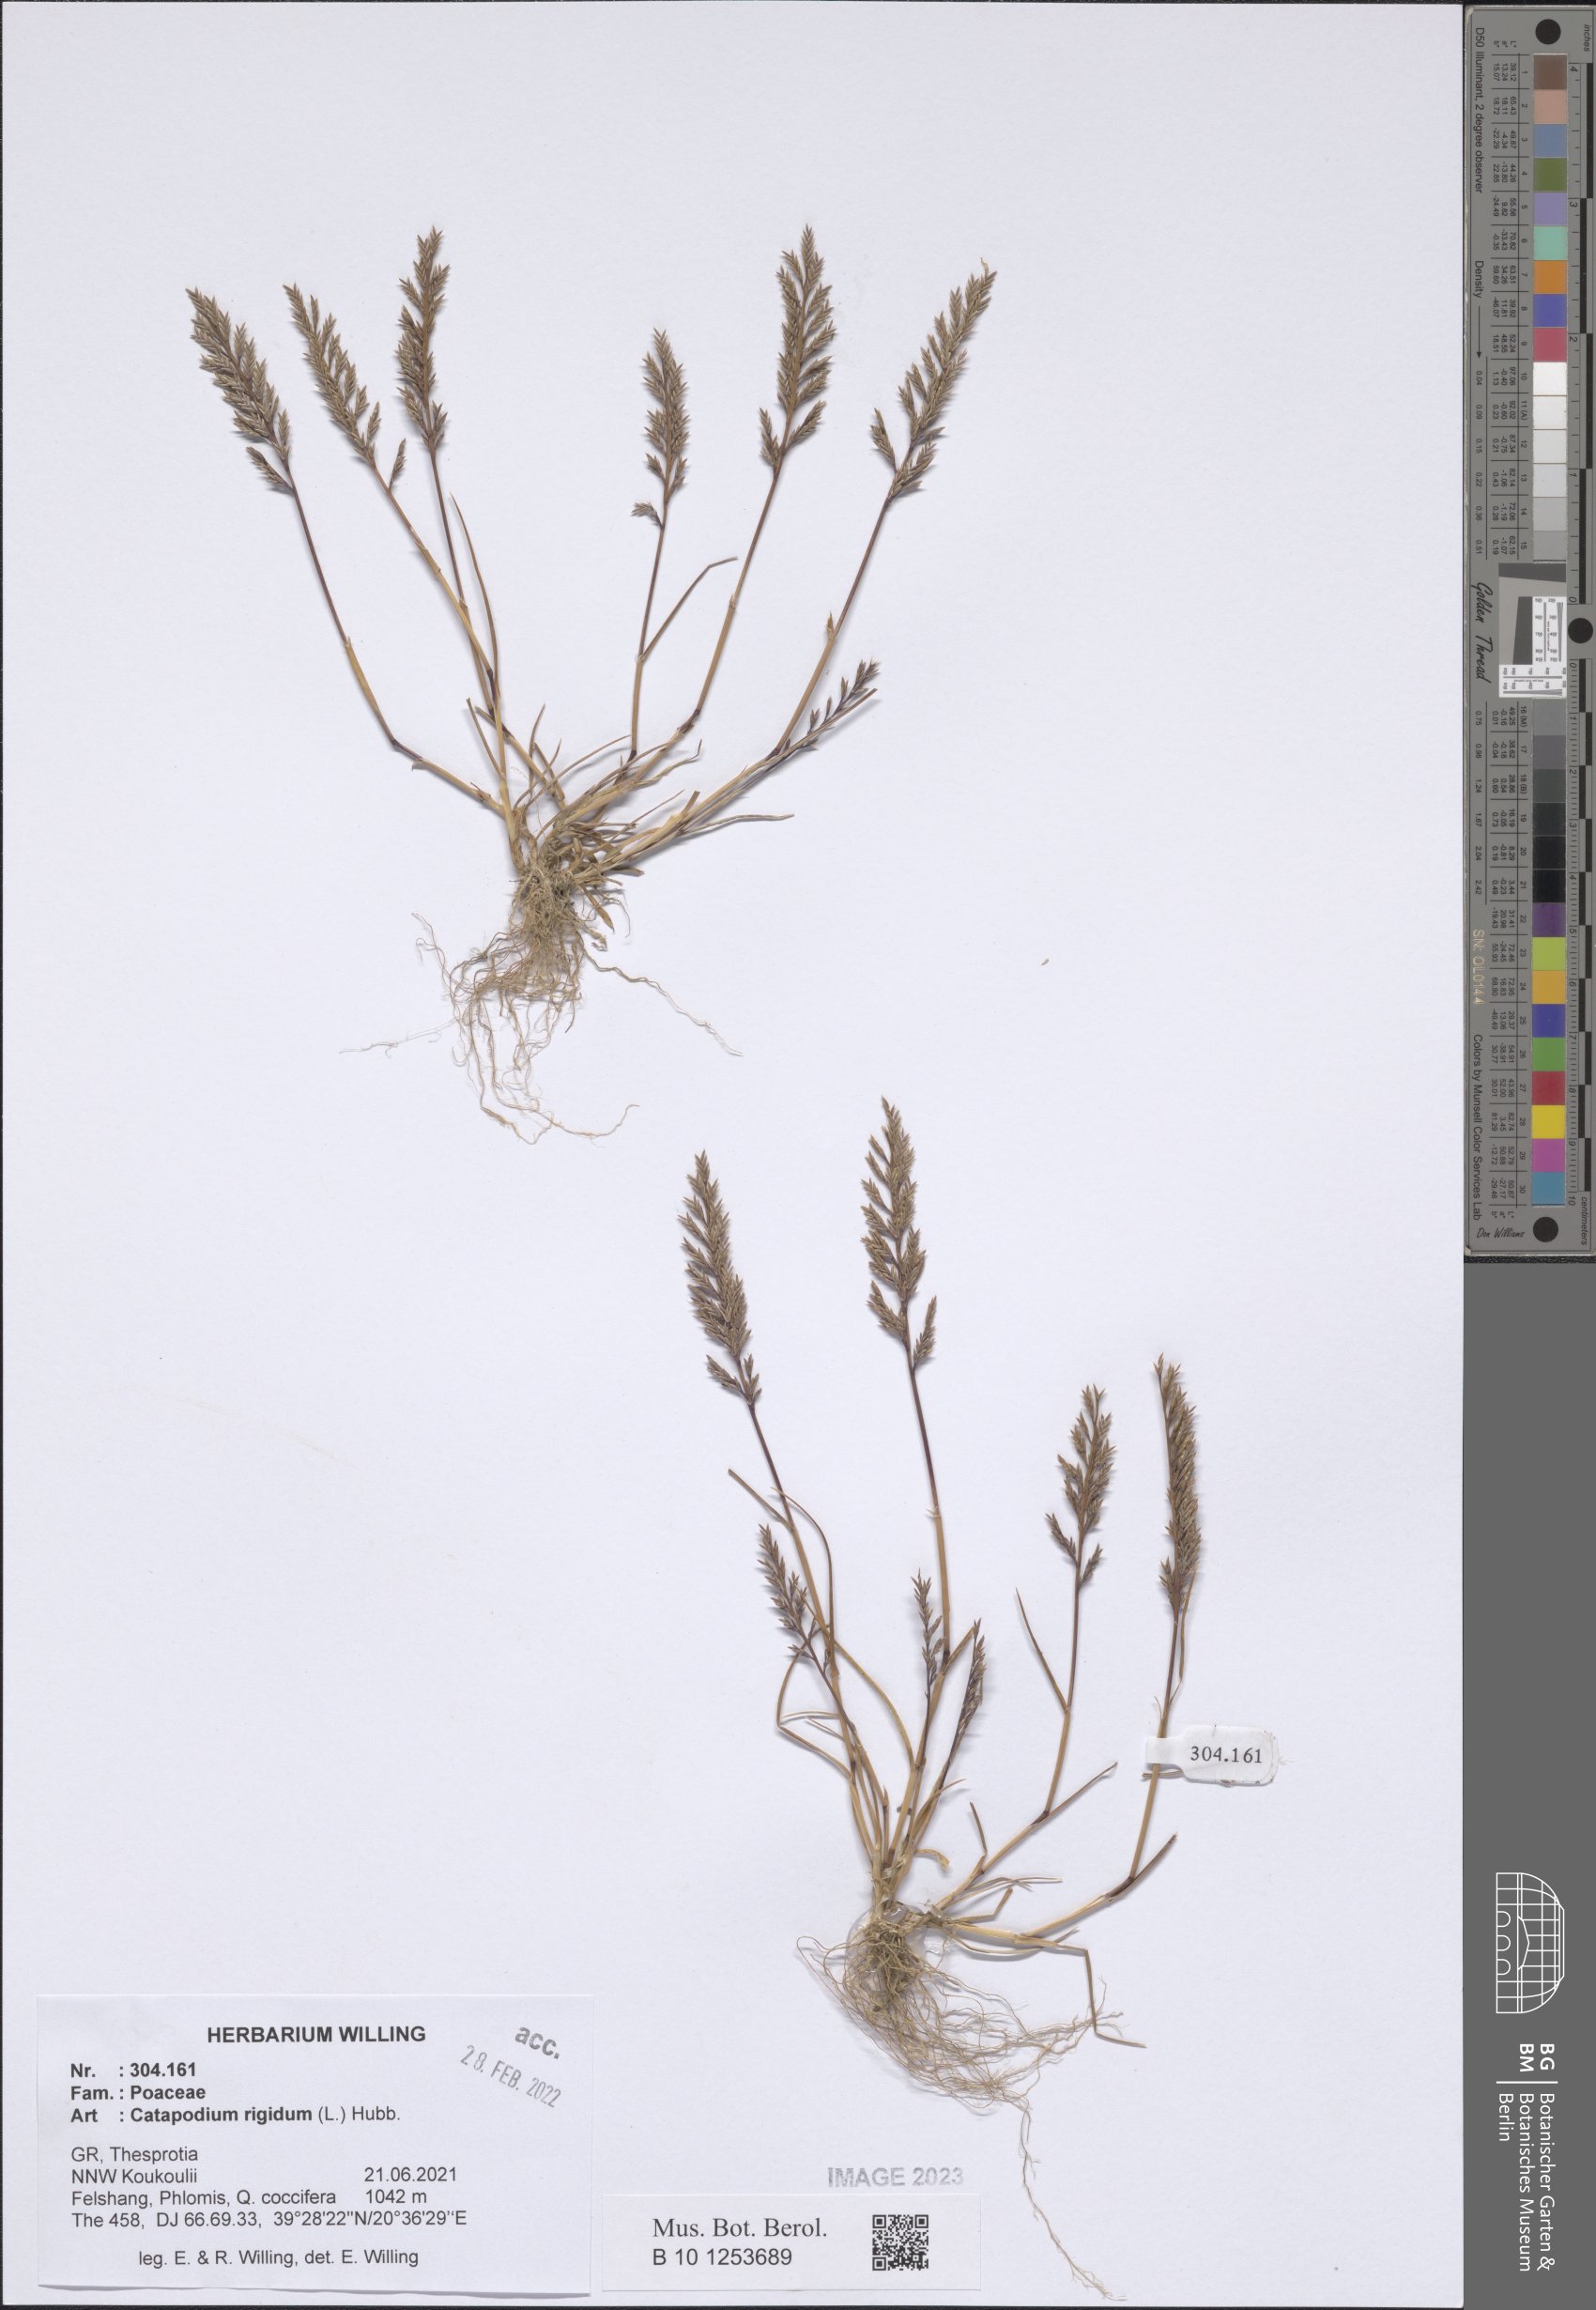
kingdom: Plantae
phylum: Tracheophyta
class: Liliopsida
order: Poales
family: Poaceae
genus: Catapodium
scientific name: Catapodium rigidum
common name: Fern-grass
